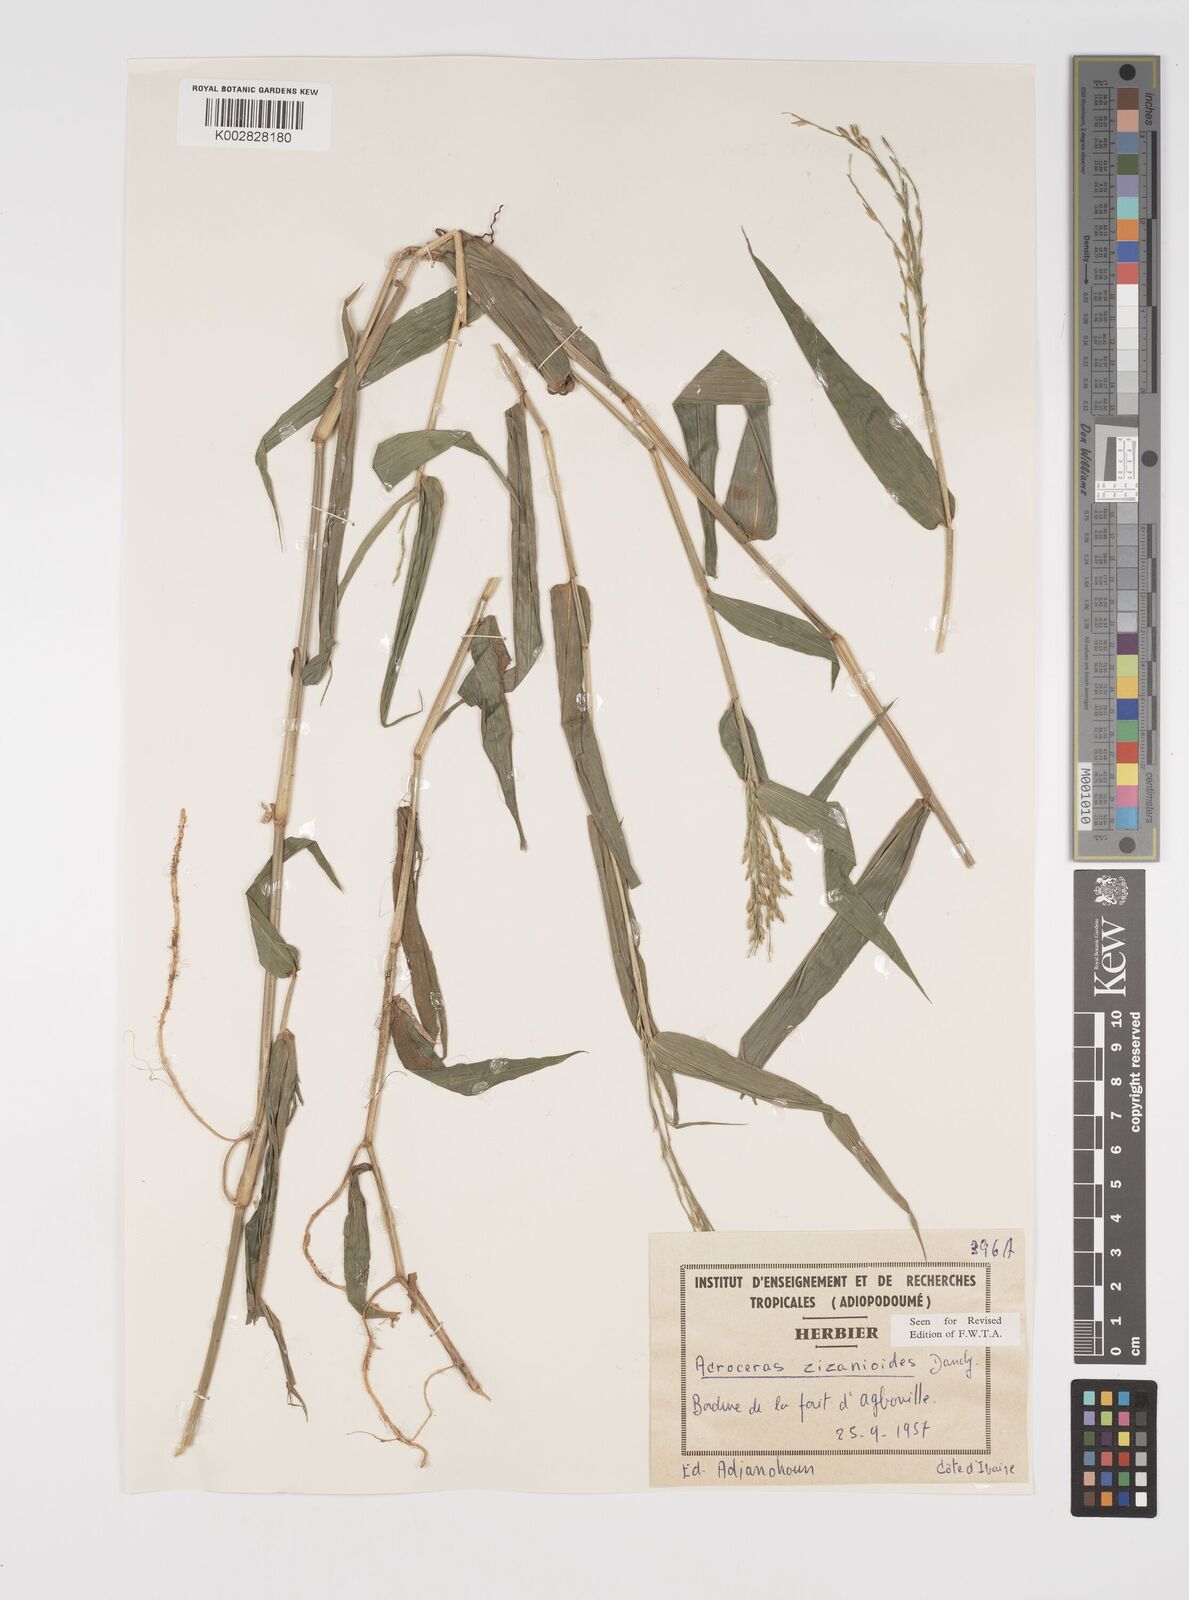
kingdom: Plantae
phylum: Tracheophyta
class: Liliopsida
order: Poales
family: Poaceae
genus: Acroceras
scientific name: Acroceras zizanioides
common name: Oat grass
